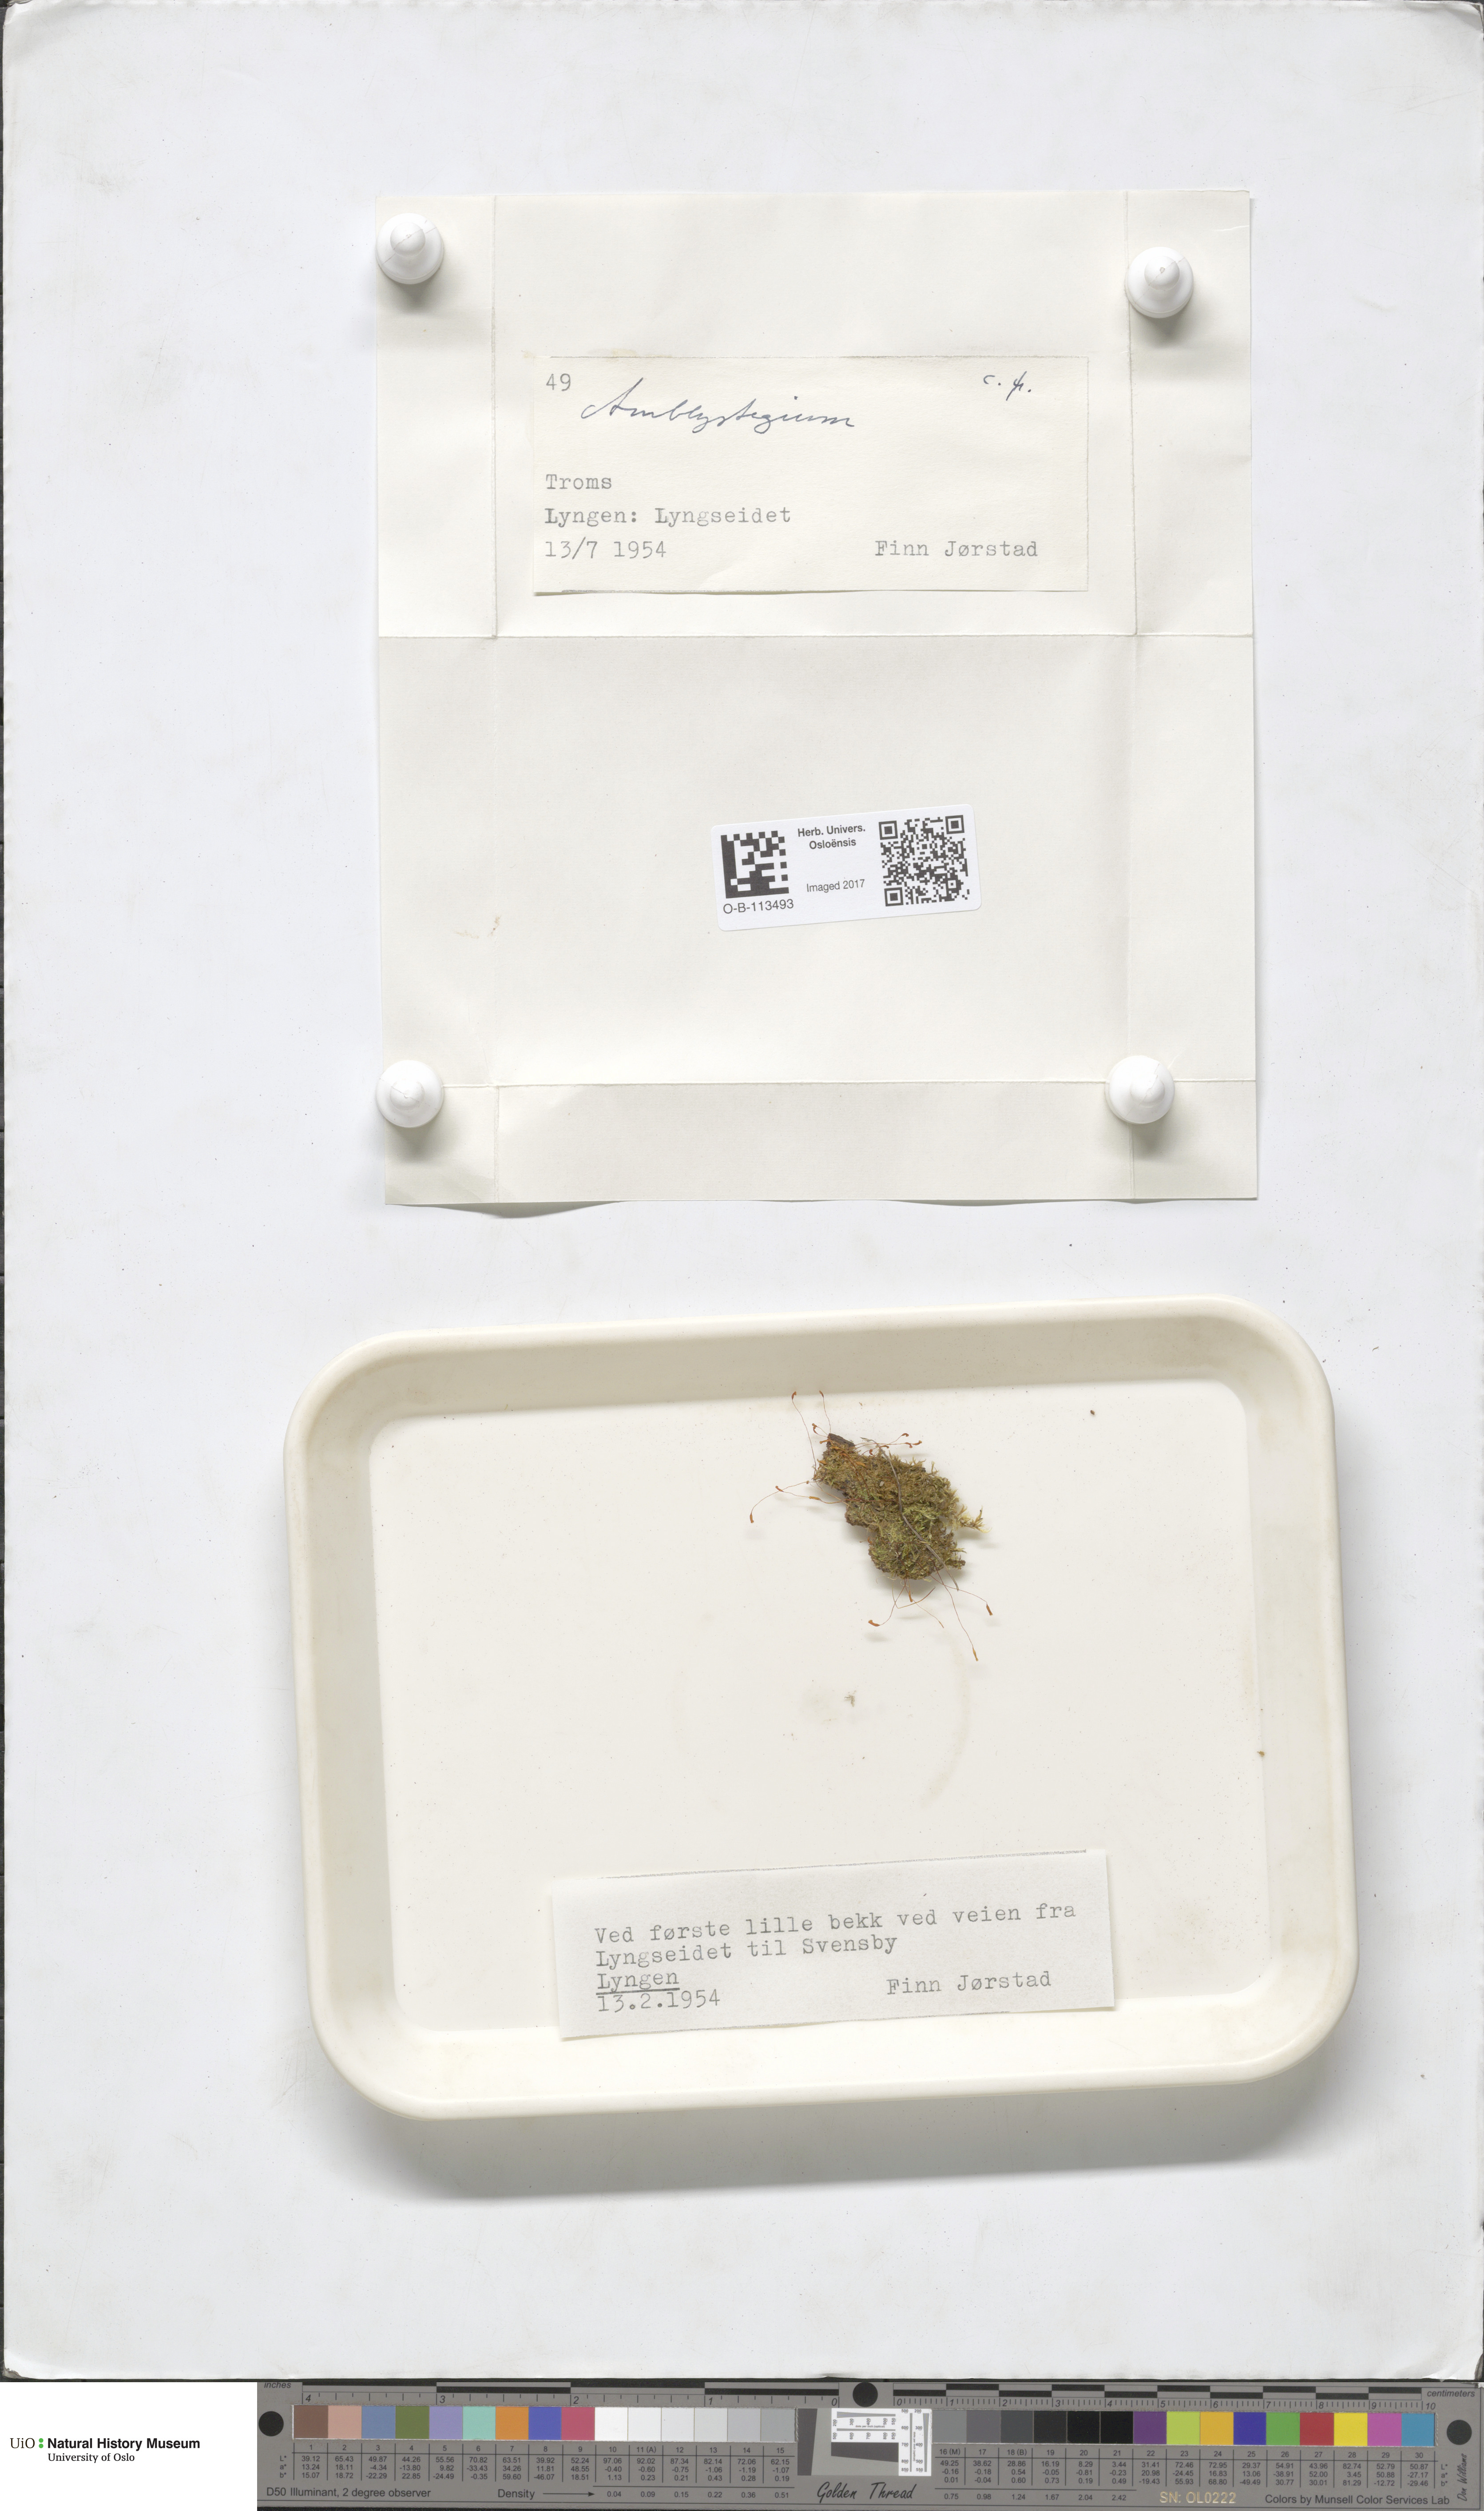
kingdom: Plantae
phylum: Bryophyta
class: Bryopsida
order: Hypnales
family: Amblystegiaceae
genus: Amblystegium
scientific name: Amblystegium
